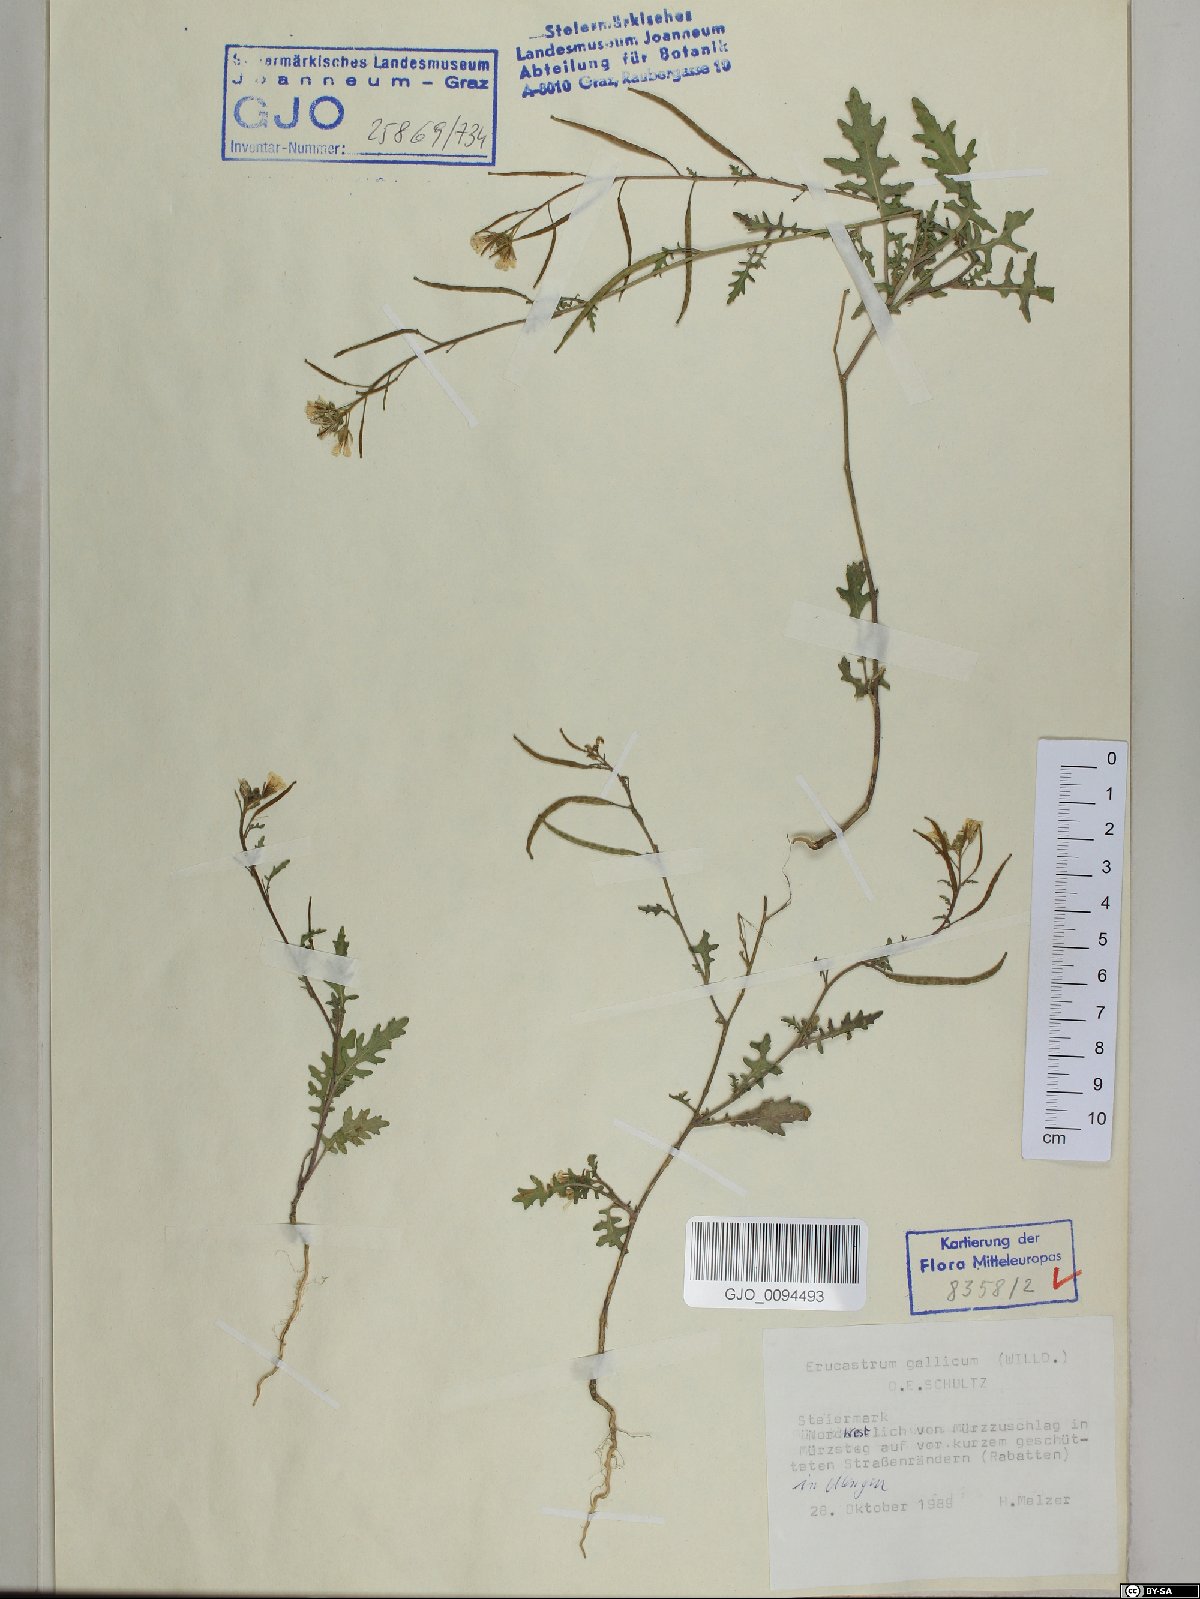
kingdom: Plantae
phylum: Tracheophyta
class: Magnoliopsida
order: Brassicales
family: Brassicaceae
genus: Erucastrum
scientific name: Erucastrum gallicum
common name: Hairy rocket
